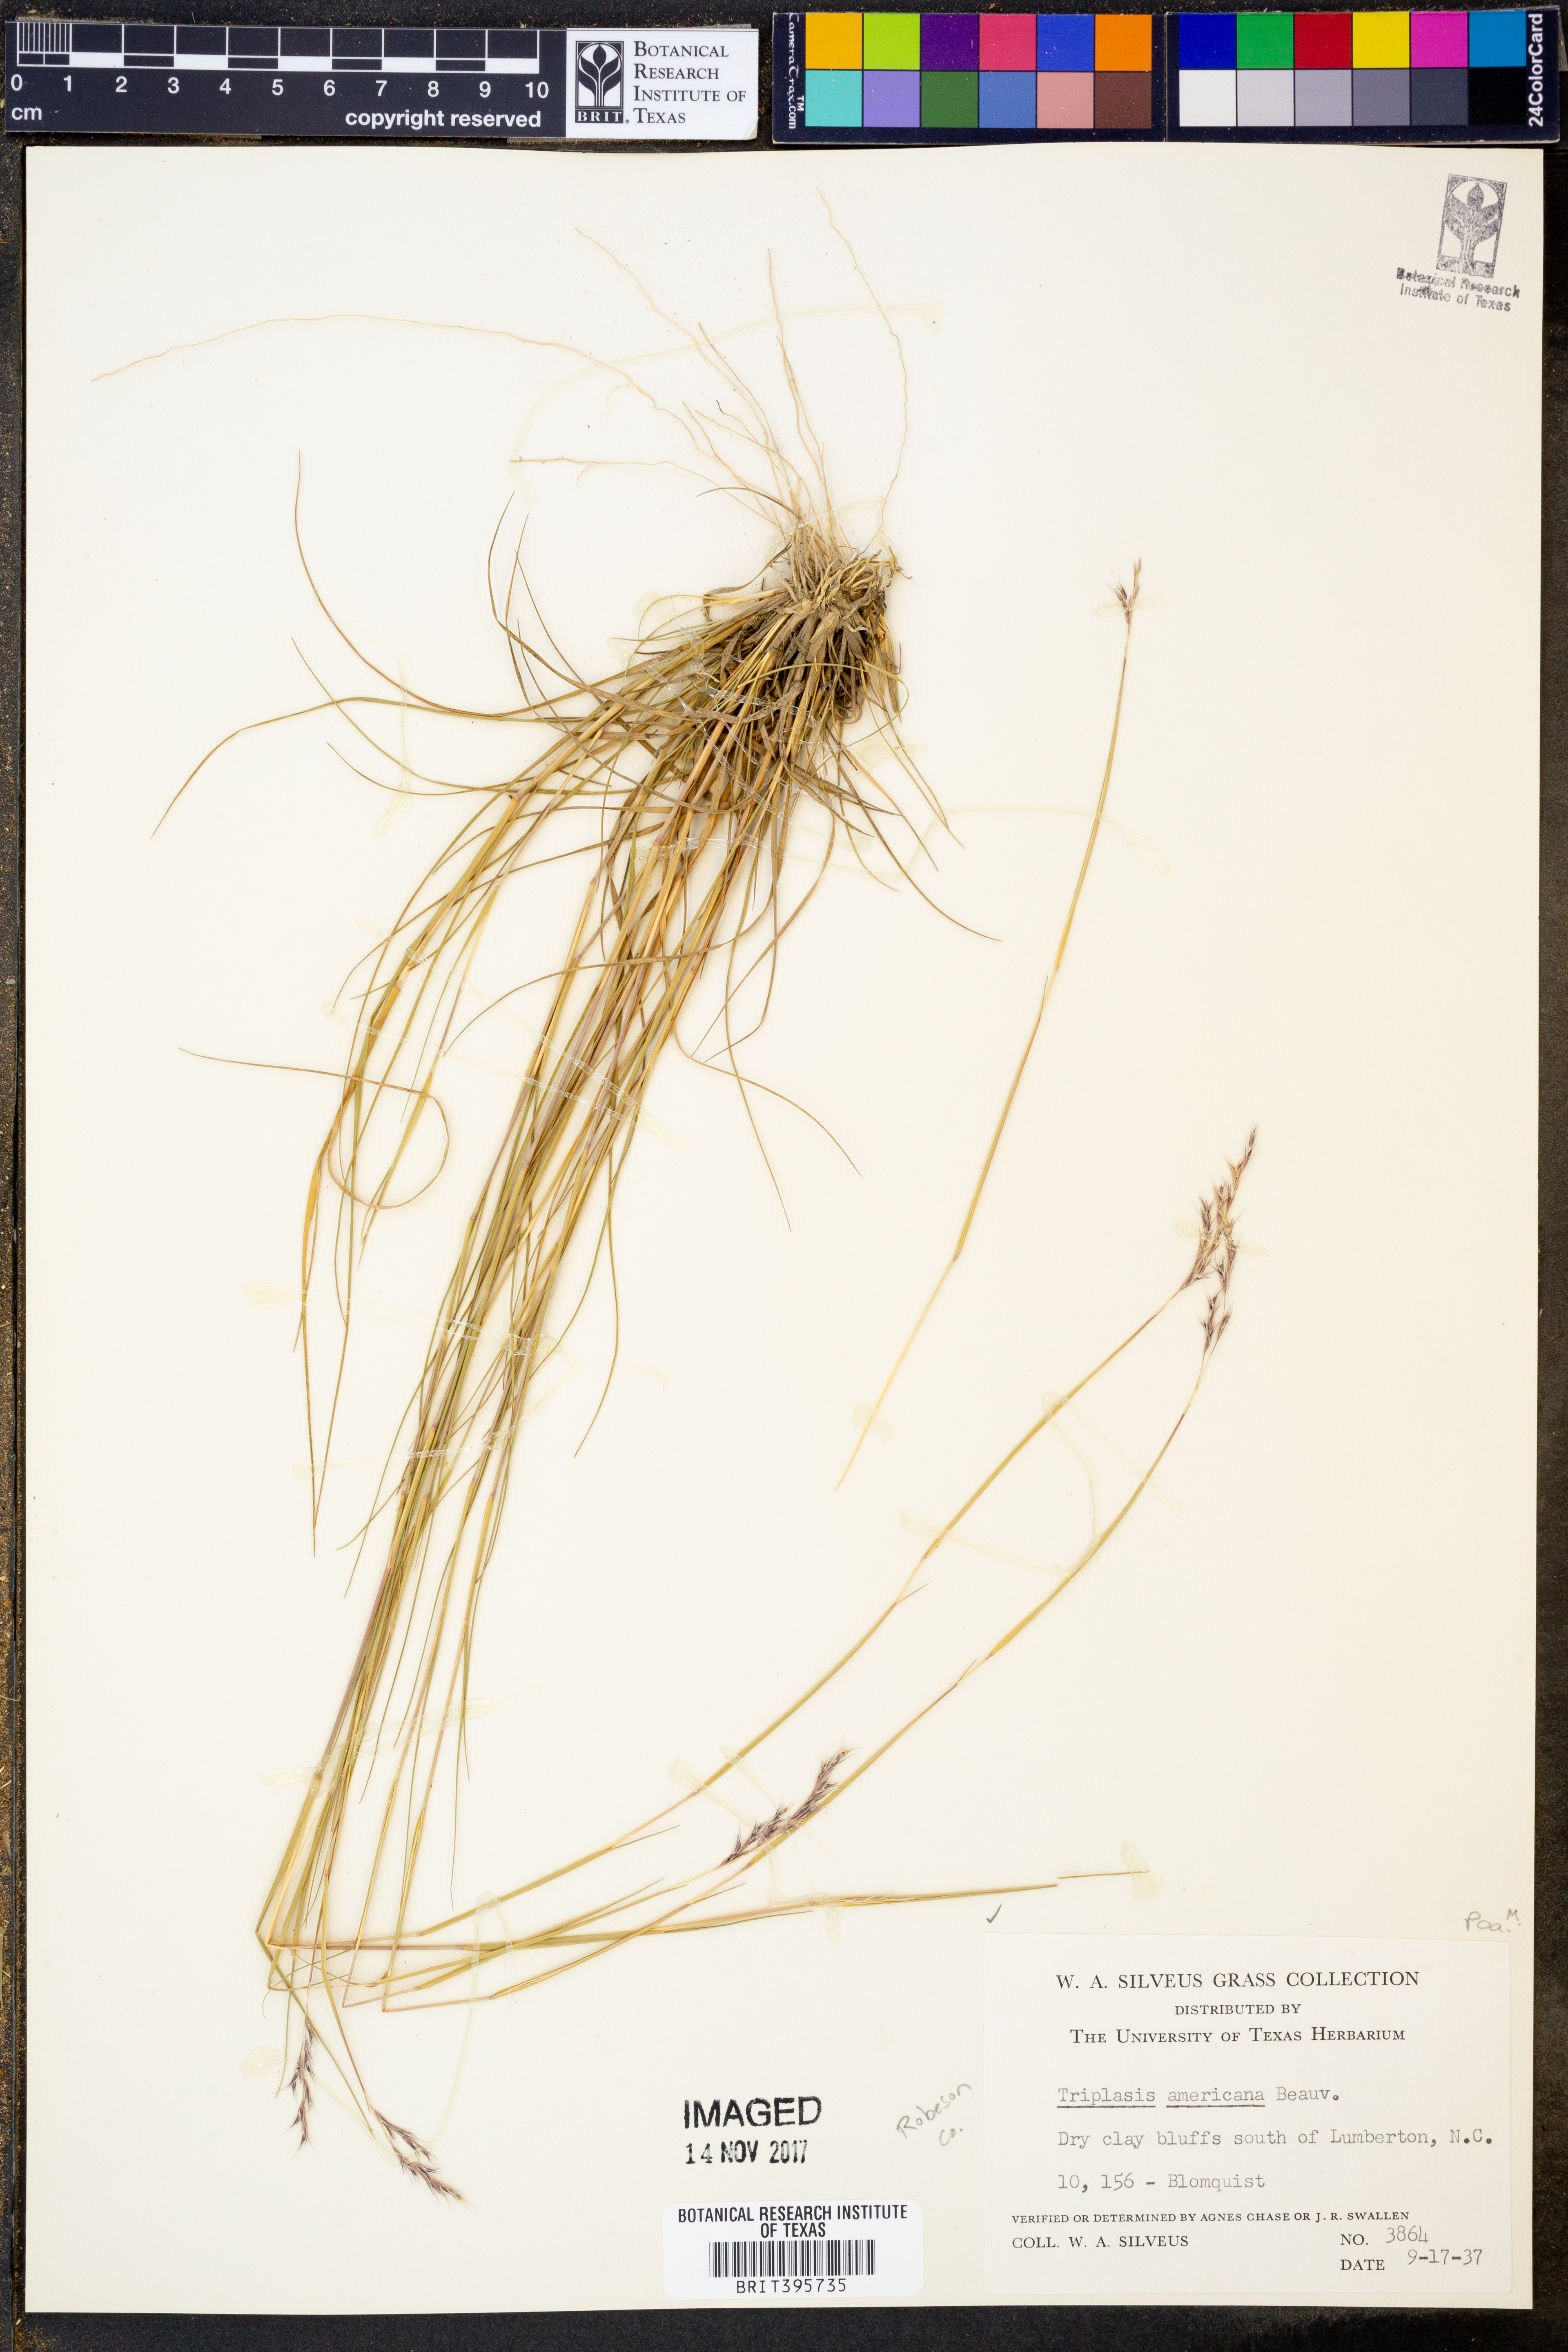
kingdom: Plantae
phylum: Tracheophyta
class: Liliopsida
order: Poales
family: Poaceae
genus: Triplasis
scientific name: Triplasis americana
